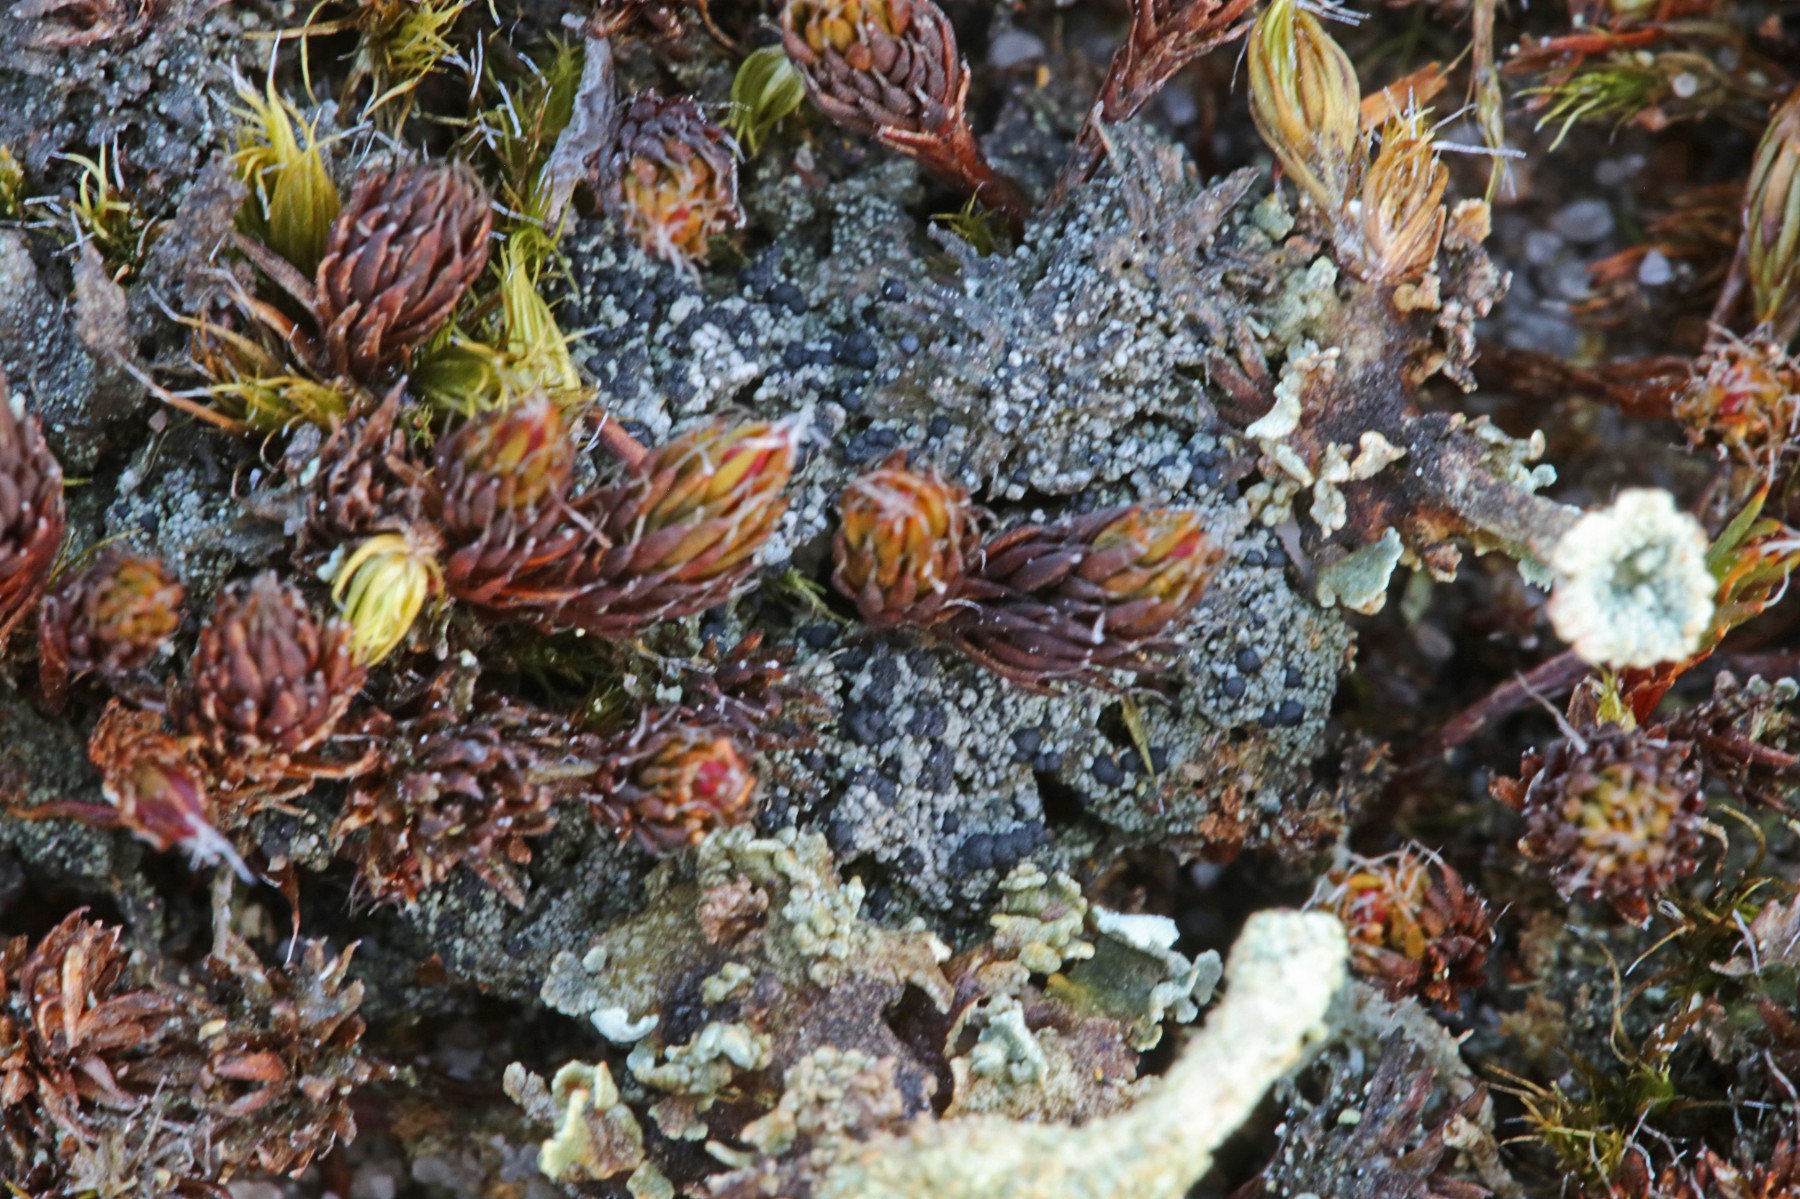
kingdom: Fungi
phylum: Ascomycota
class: Lecanoromycetes
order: Lecanorales
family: Byssolomataceae
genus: Micarea
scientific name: Micarea lignaria
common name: tørve-knaplav
